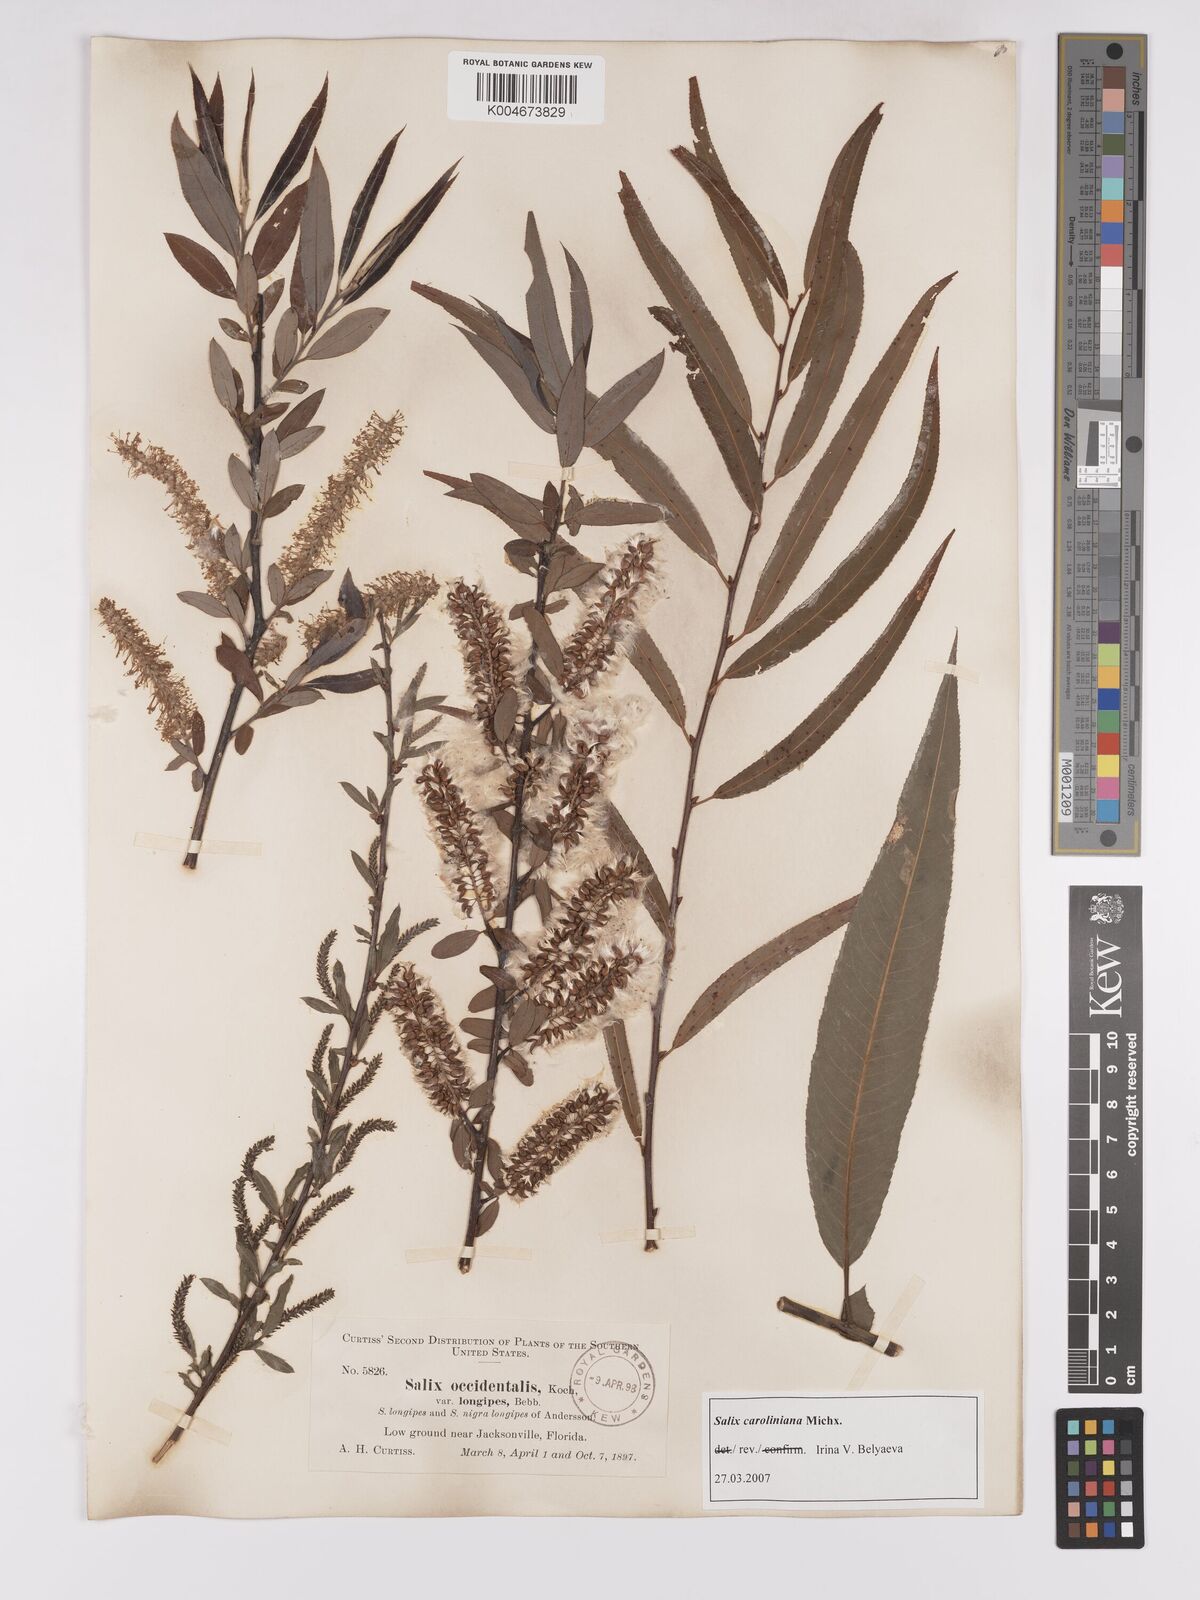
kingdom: Plantae
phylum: Tracheophyta
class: Magnoliopsida
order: Malpighiales
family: Salicaceae
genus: Salix
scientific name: Salix caroliniana
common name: Carolina willow
